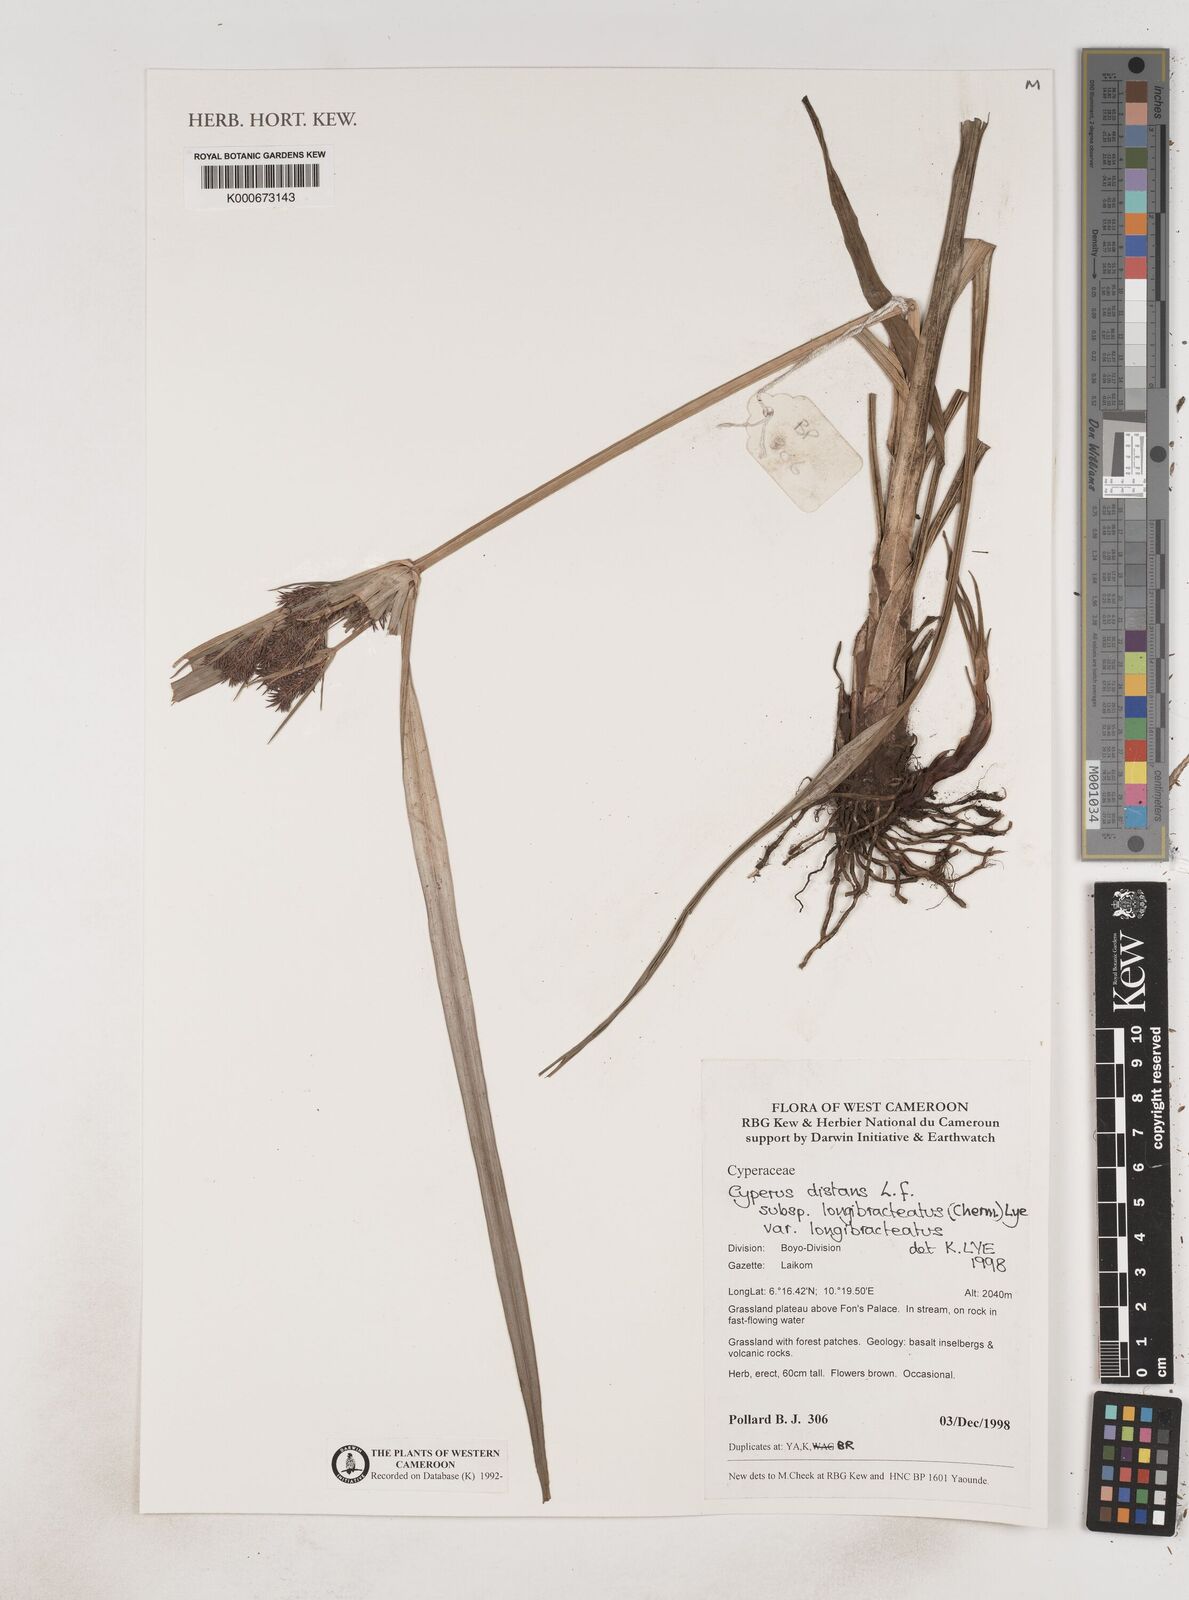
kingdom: Plantae
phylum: Tracheophyta
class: Liliopsida
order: Poales
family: Cyperaceae
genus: Cyperus
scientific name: Cyperus distans
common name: Slender cyperus
